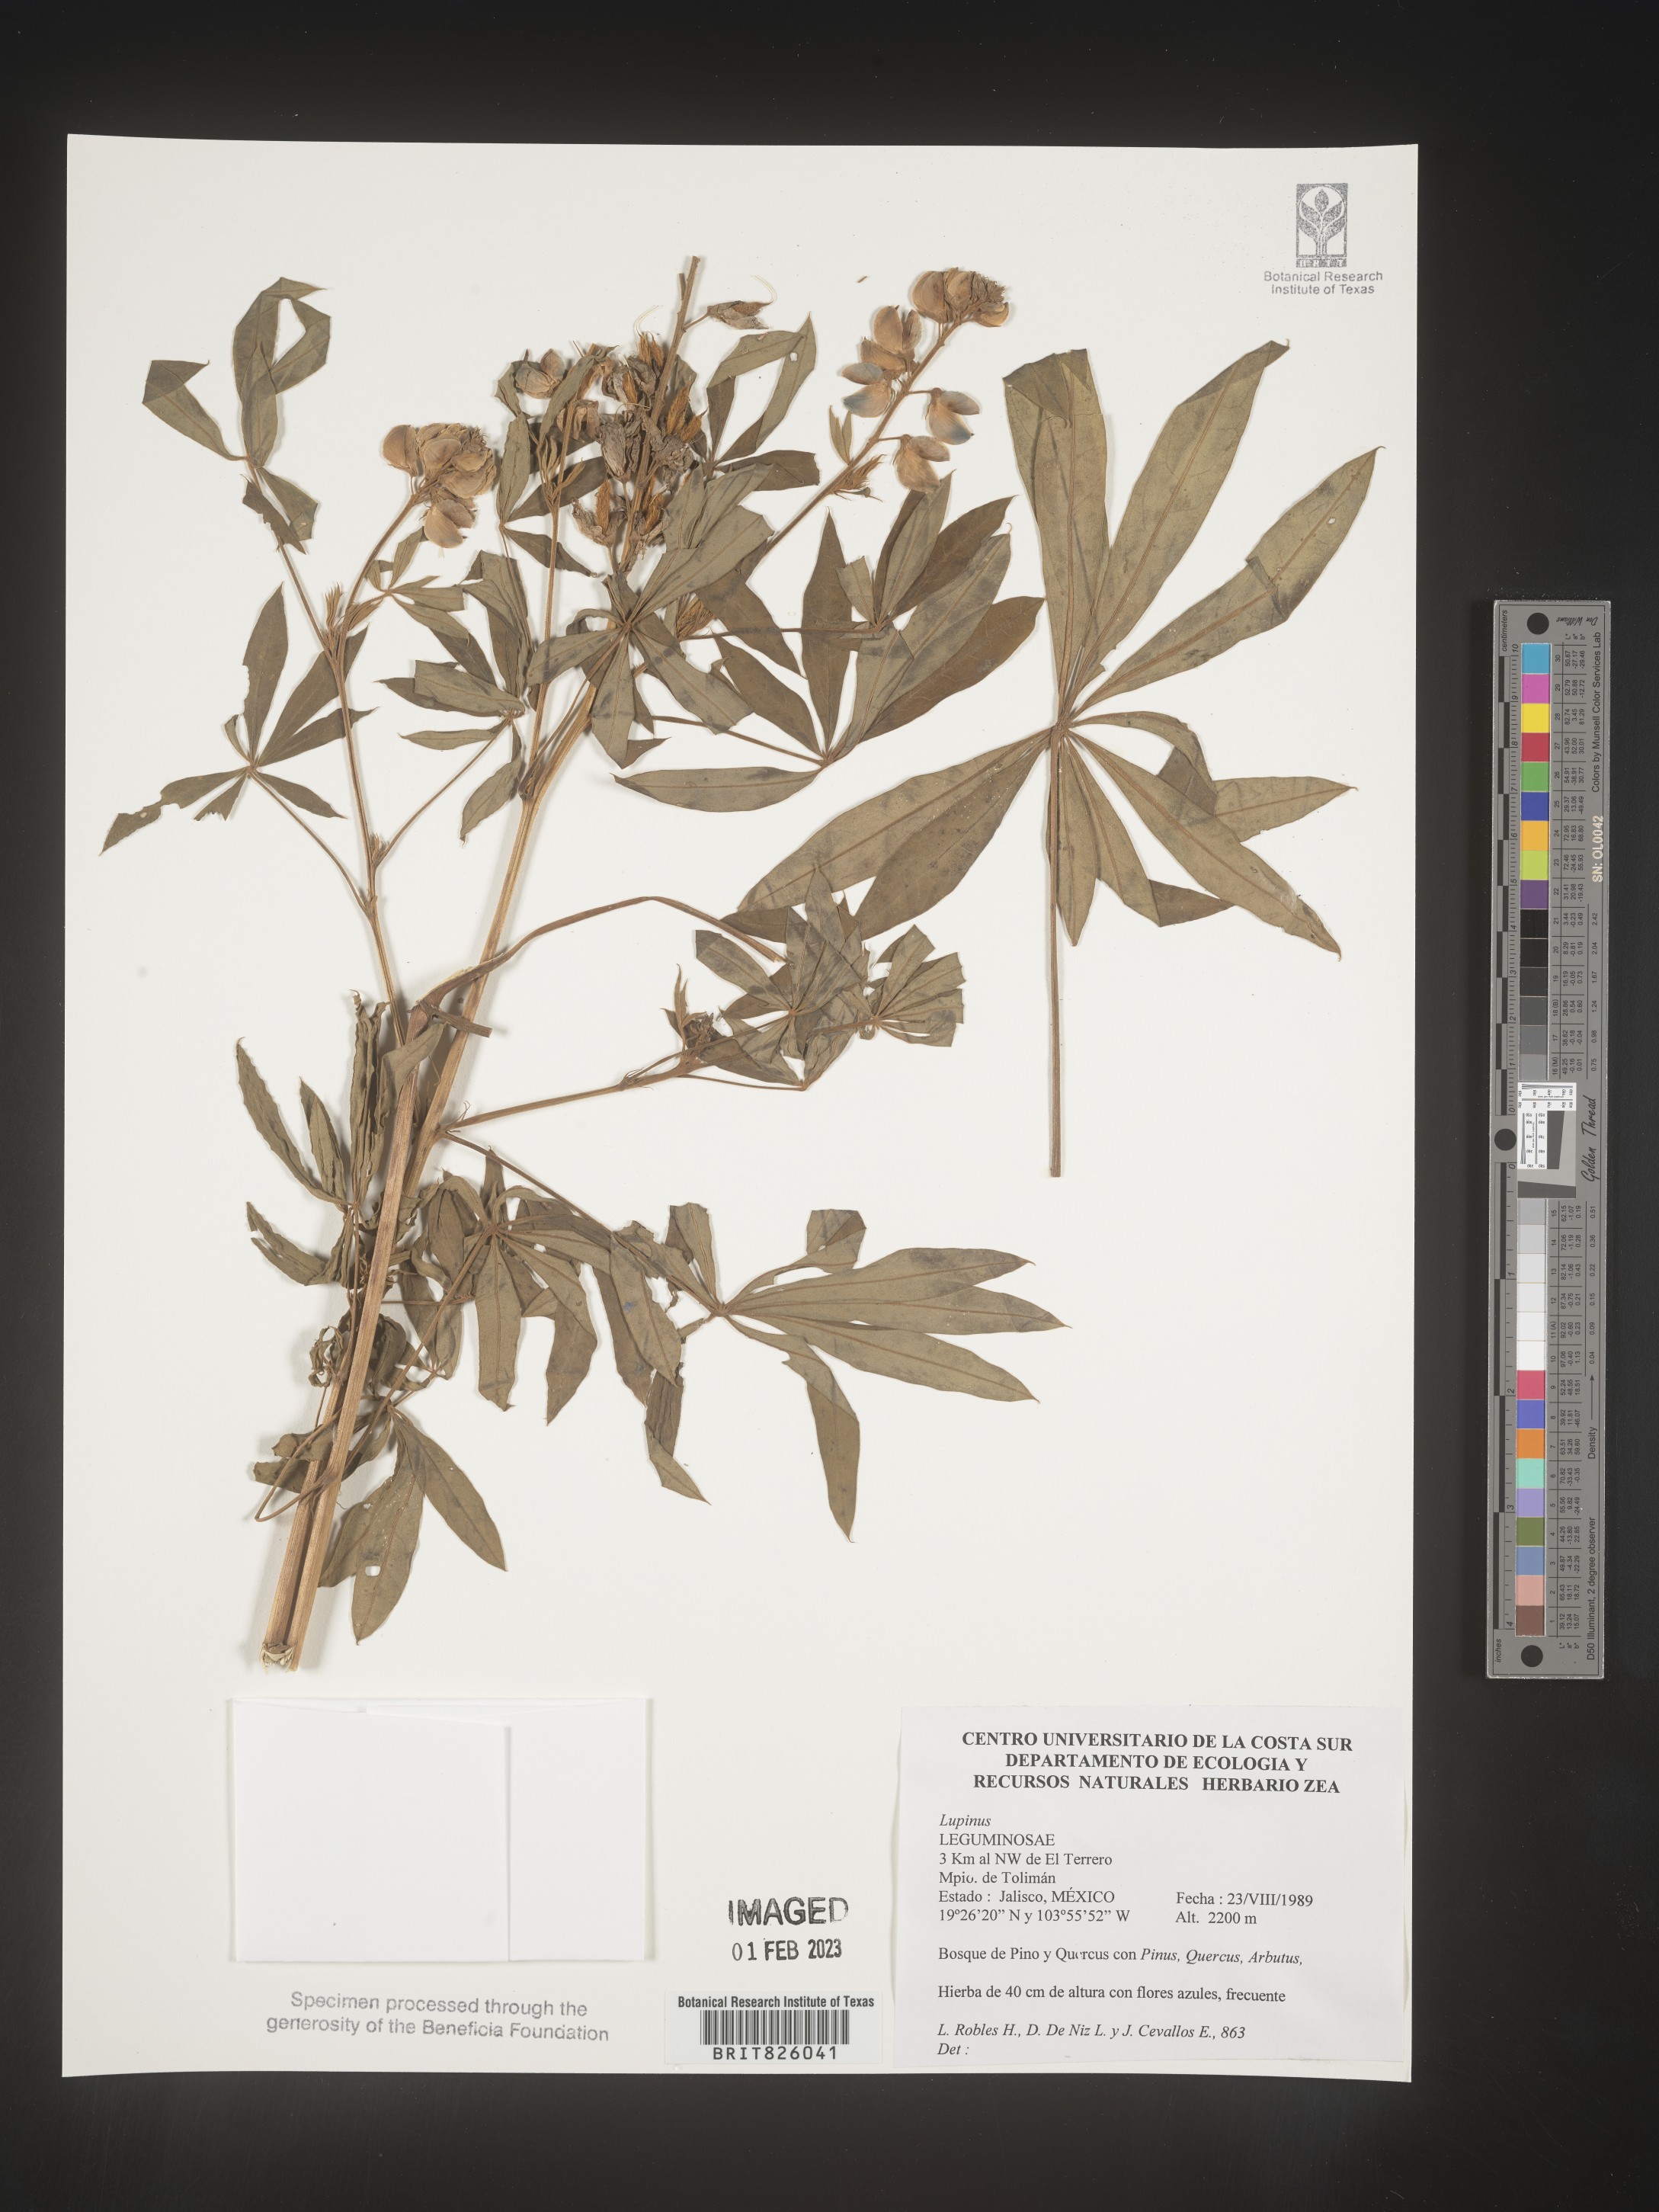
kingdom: Plantae
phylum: Tracheophyta
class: Magnoliopsida
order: Fabales
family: Fabaceae
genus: Lupinus
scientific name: Lupinus
